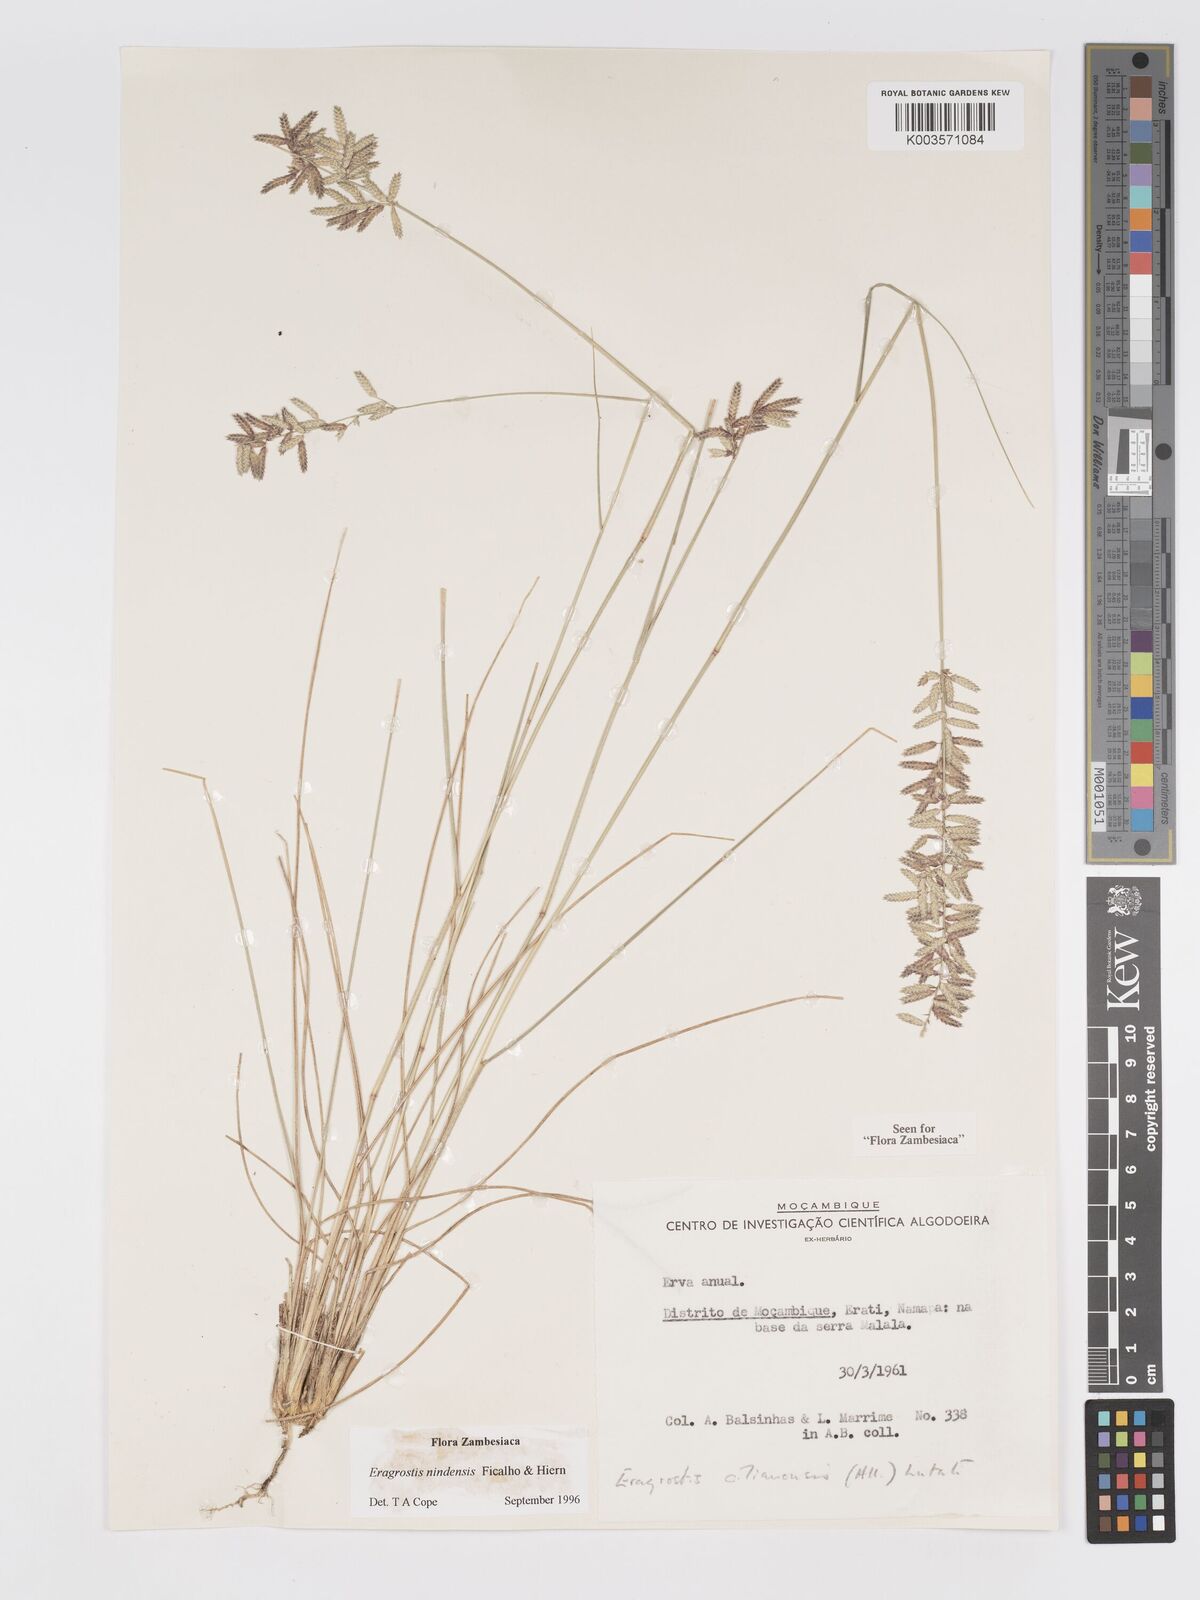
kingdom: Plantae
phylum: Tracheophyta
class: Liliopsida
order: Poales
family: Poaceae
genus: Eragrostis
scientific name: Eragrostis nindensis
